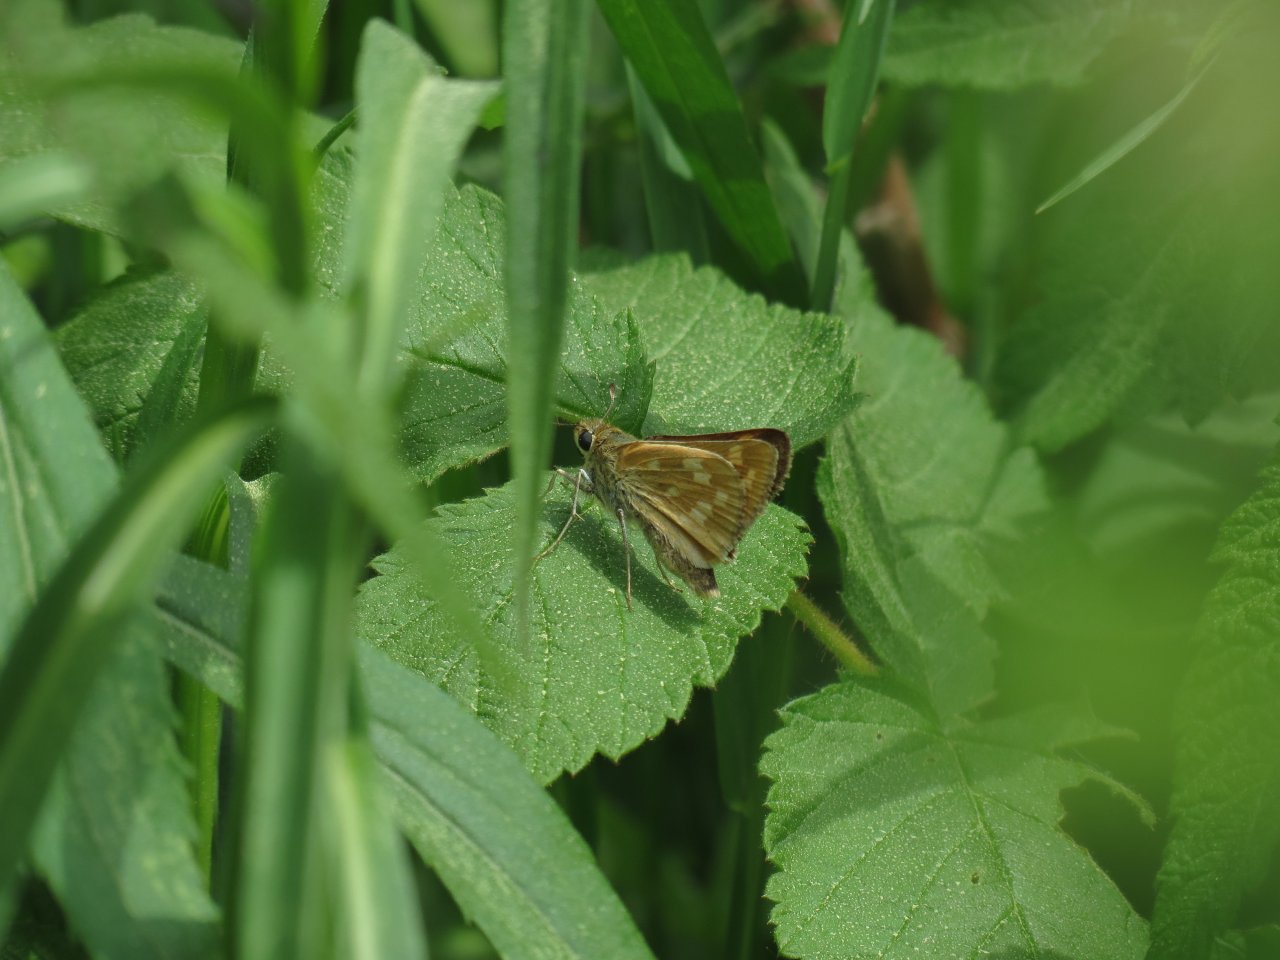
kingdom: Animalia
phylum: Arthropoda
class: Insecta
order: Lepidoptera
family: Hesperiidae
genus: Hesperia
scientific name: Hesperia sassacus
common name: Sassacus Skipper
